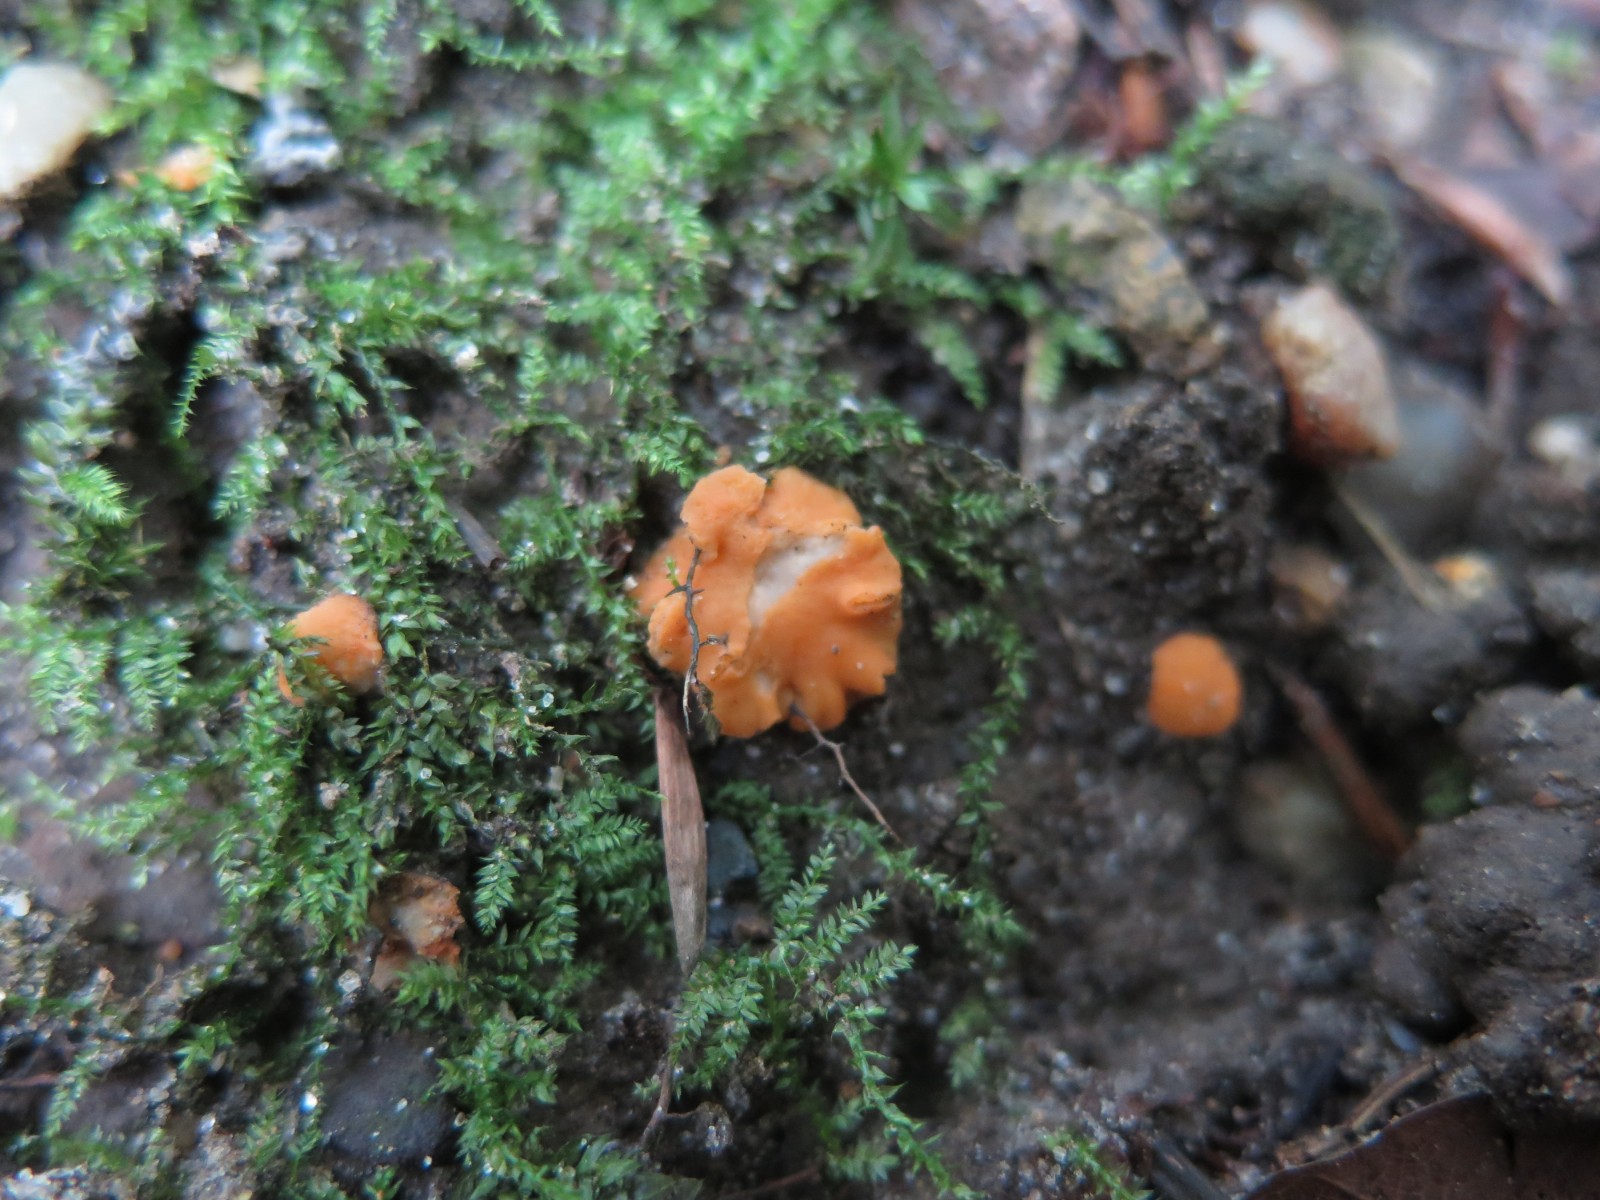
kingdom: Fungi
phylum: Ascomycota
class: Pezizomycetes
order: Pezizales
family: Pulvinulaceae
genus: Pulvinula
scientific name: Pulvinula convexella
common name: stor pudebæger
